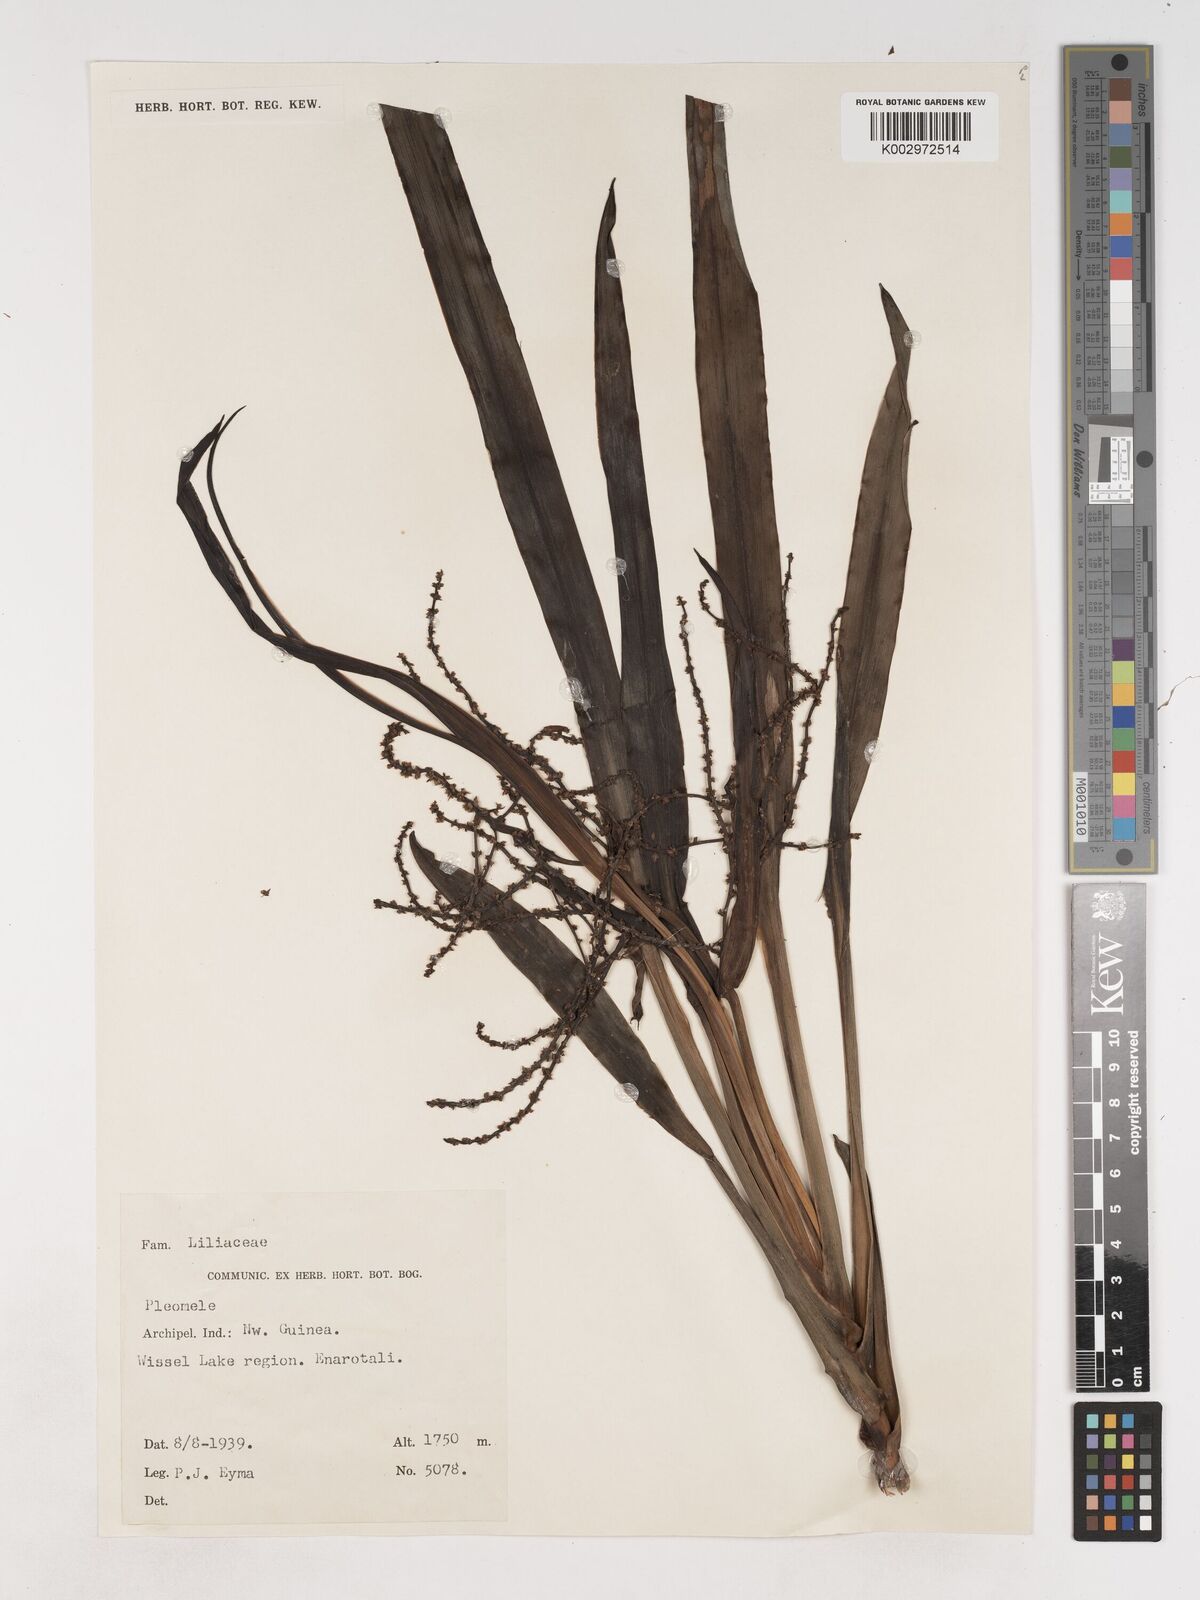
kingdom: Plantae
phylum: Tracheophyta
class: Liliopsida
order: Asparagales
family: Asparagaceae
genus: Cordyline
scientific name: Cordyline
